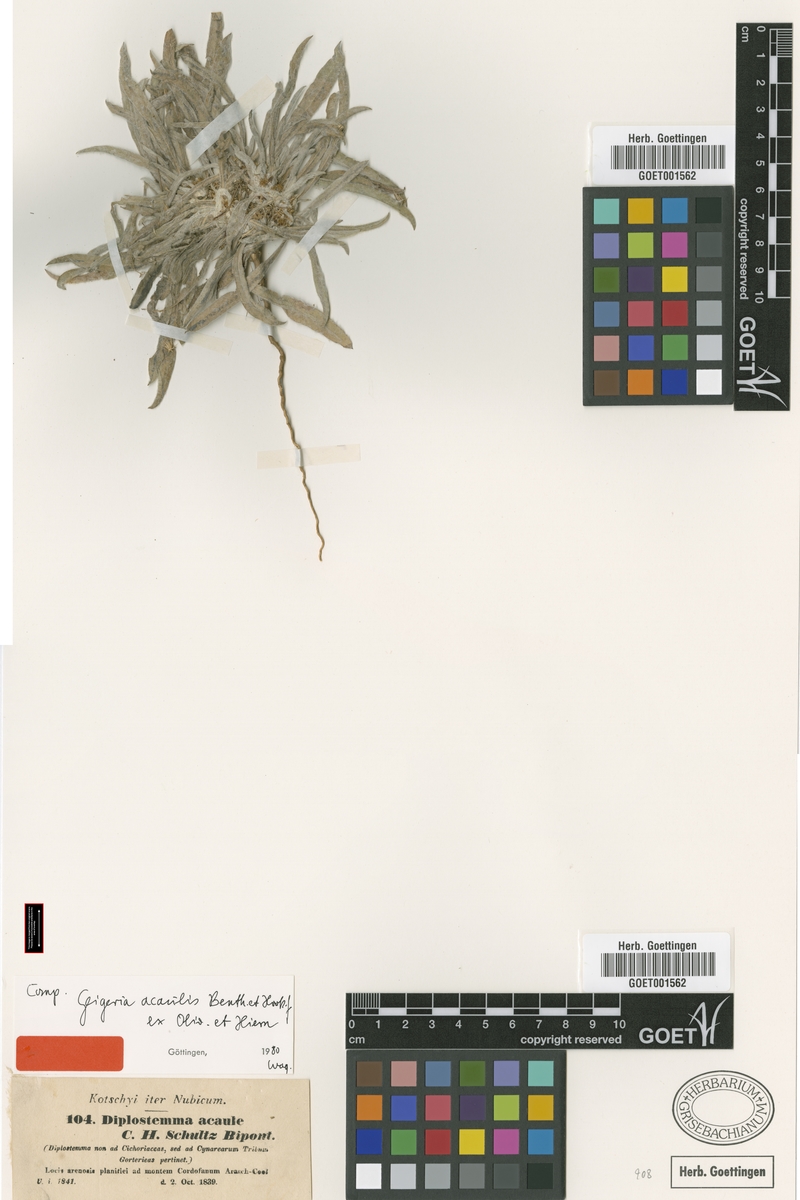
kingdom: Plantae
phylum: Tracheophyta
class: Magnoliopsida
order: Asterales
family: Asteraceae
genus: Geigeria
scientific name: Geigeria acaulis
